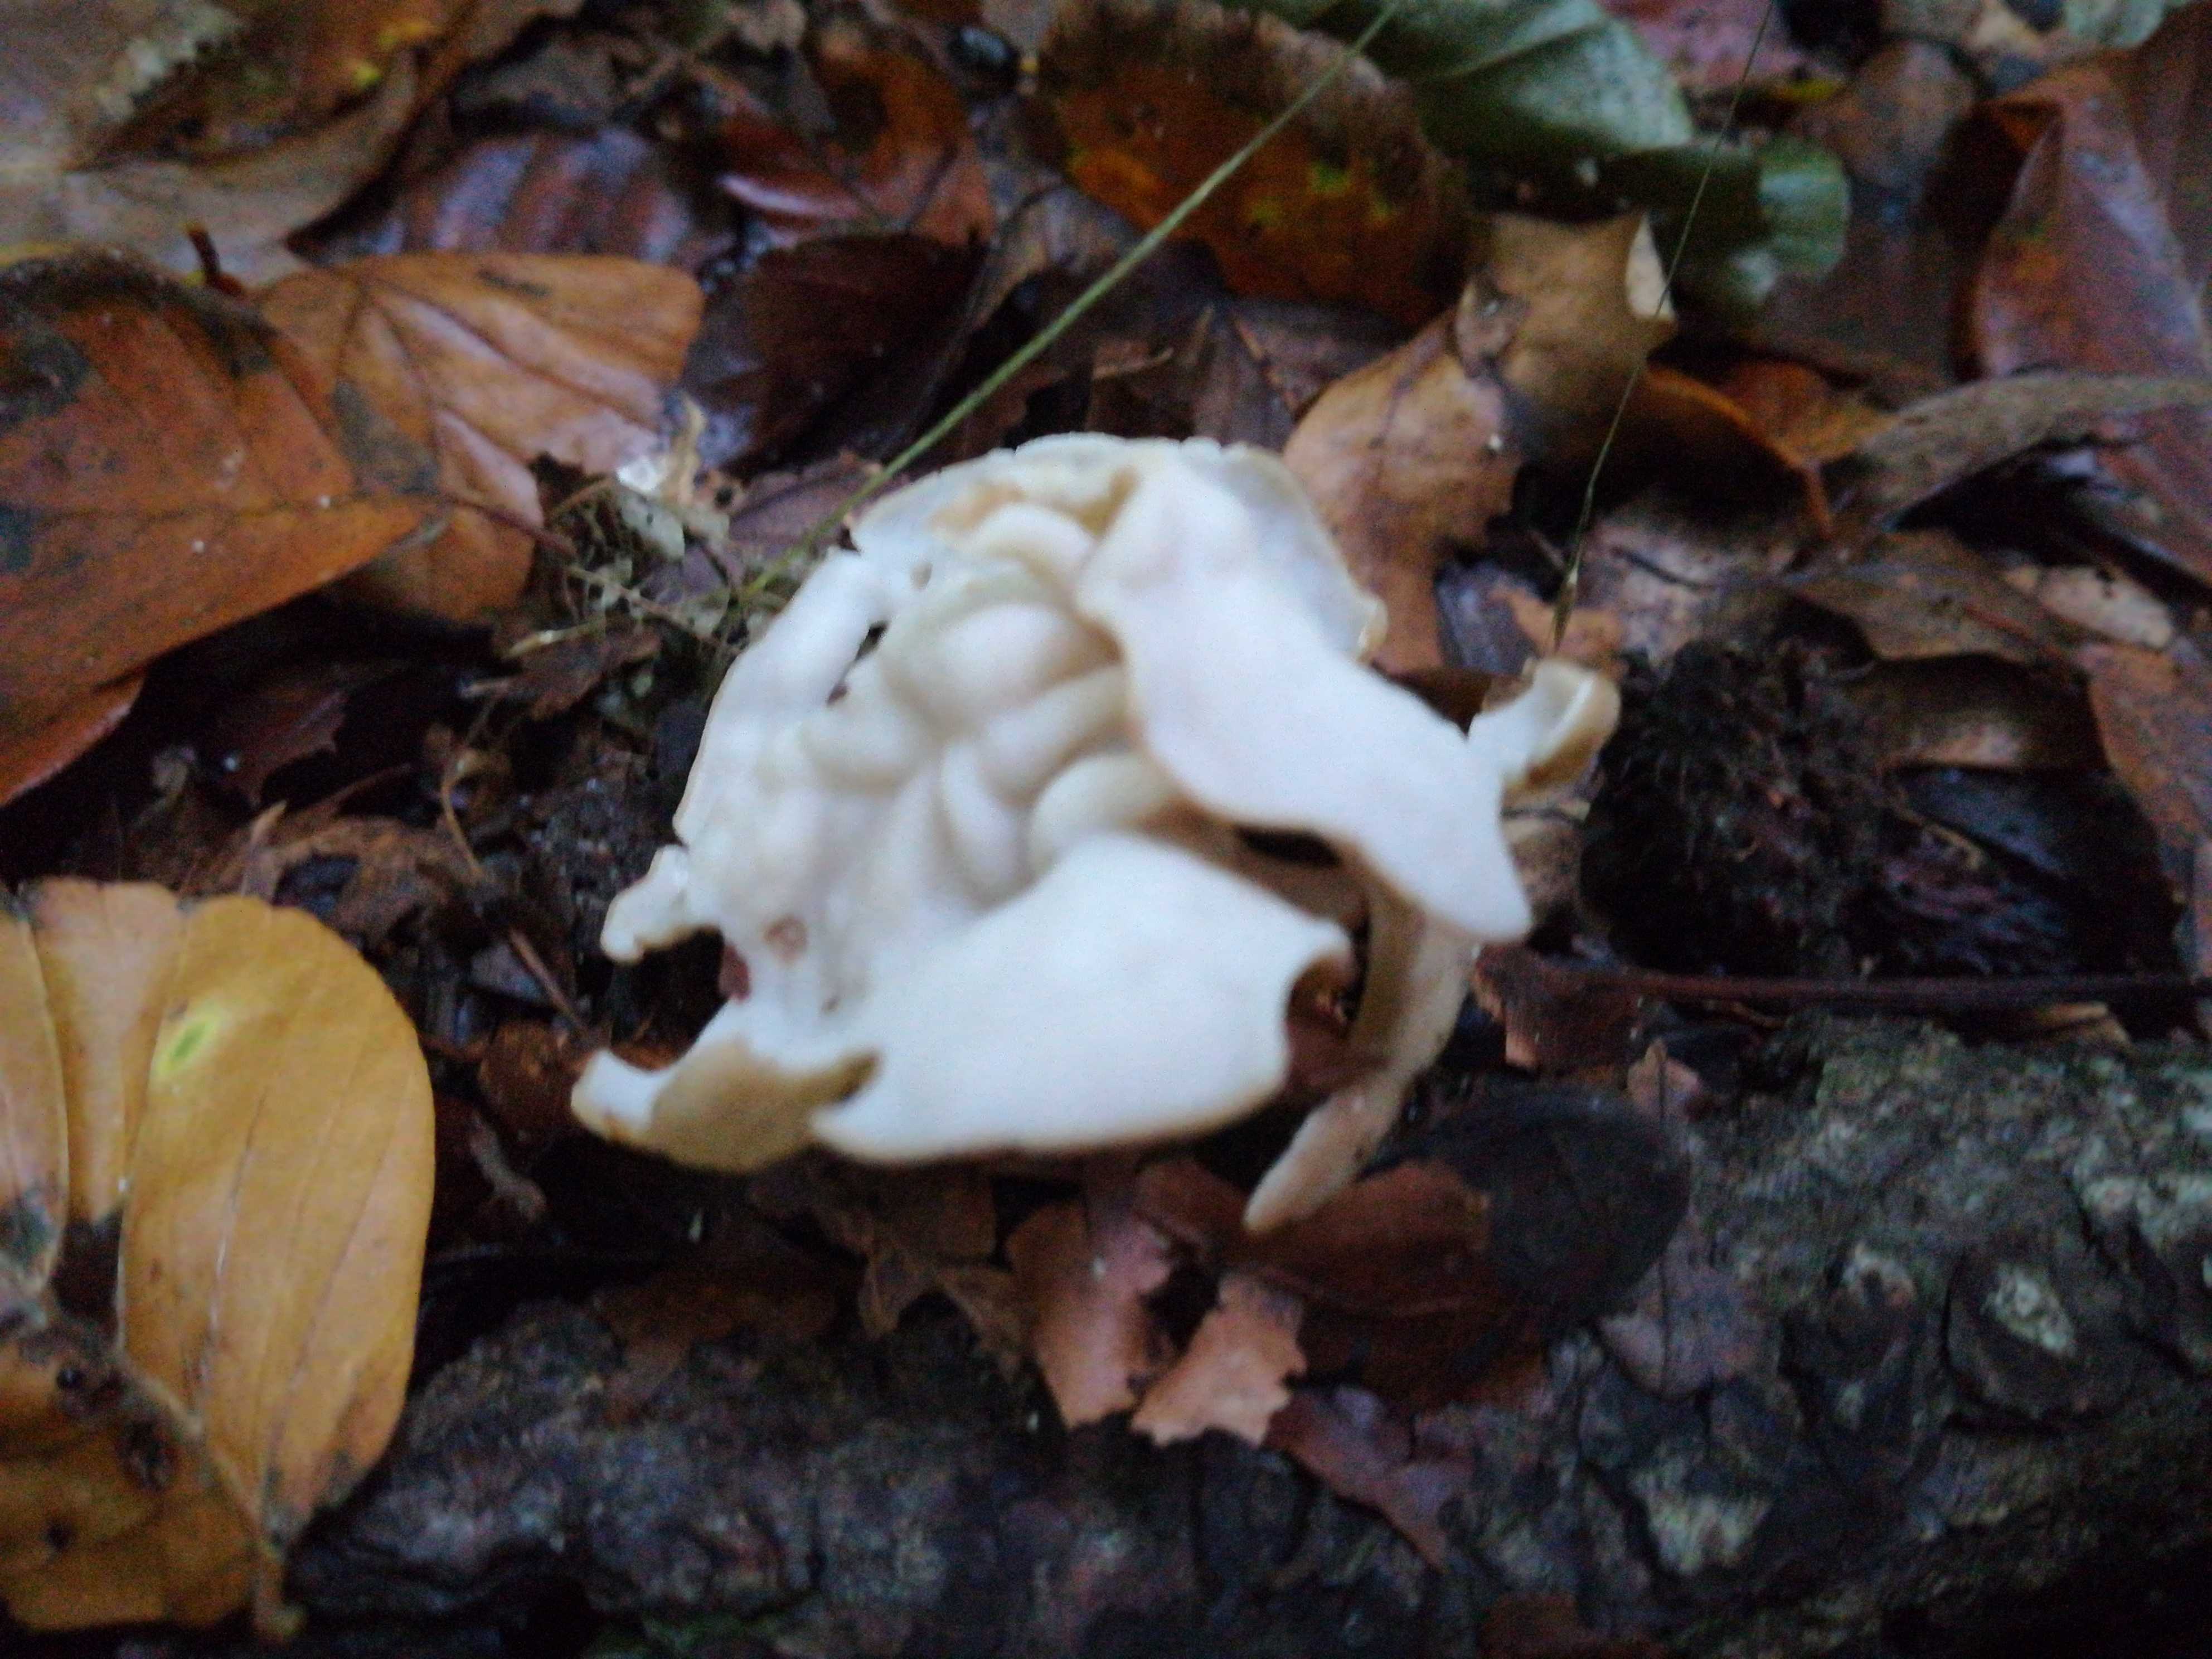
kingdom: Fungi
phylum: Ascomycota
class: Pezizomycetes
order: Pezizales
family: Helvellaceae
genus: Helvella
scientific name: Helvella crispa
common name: kruset foldhat
